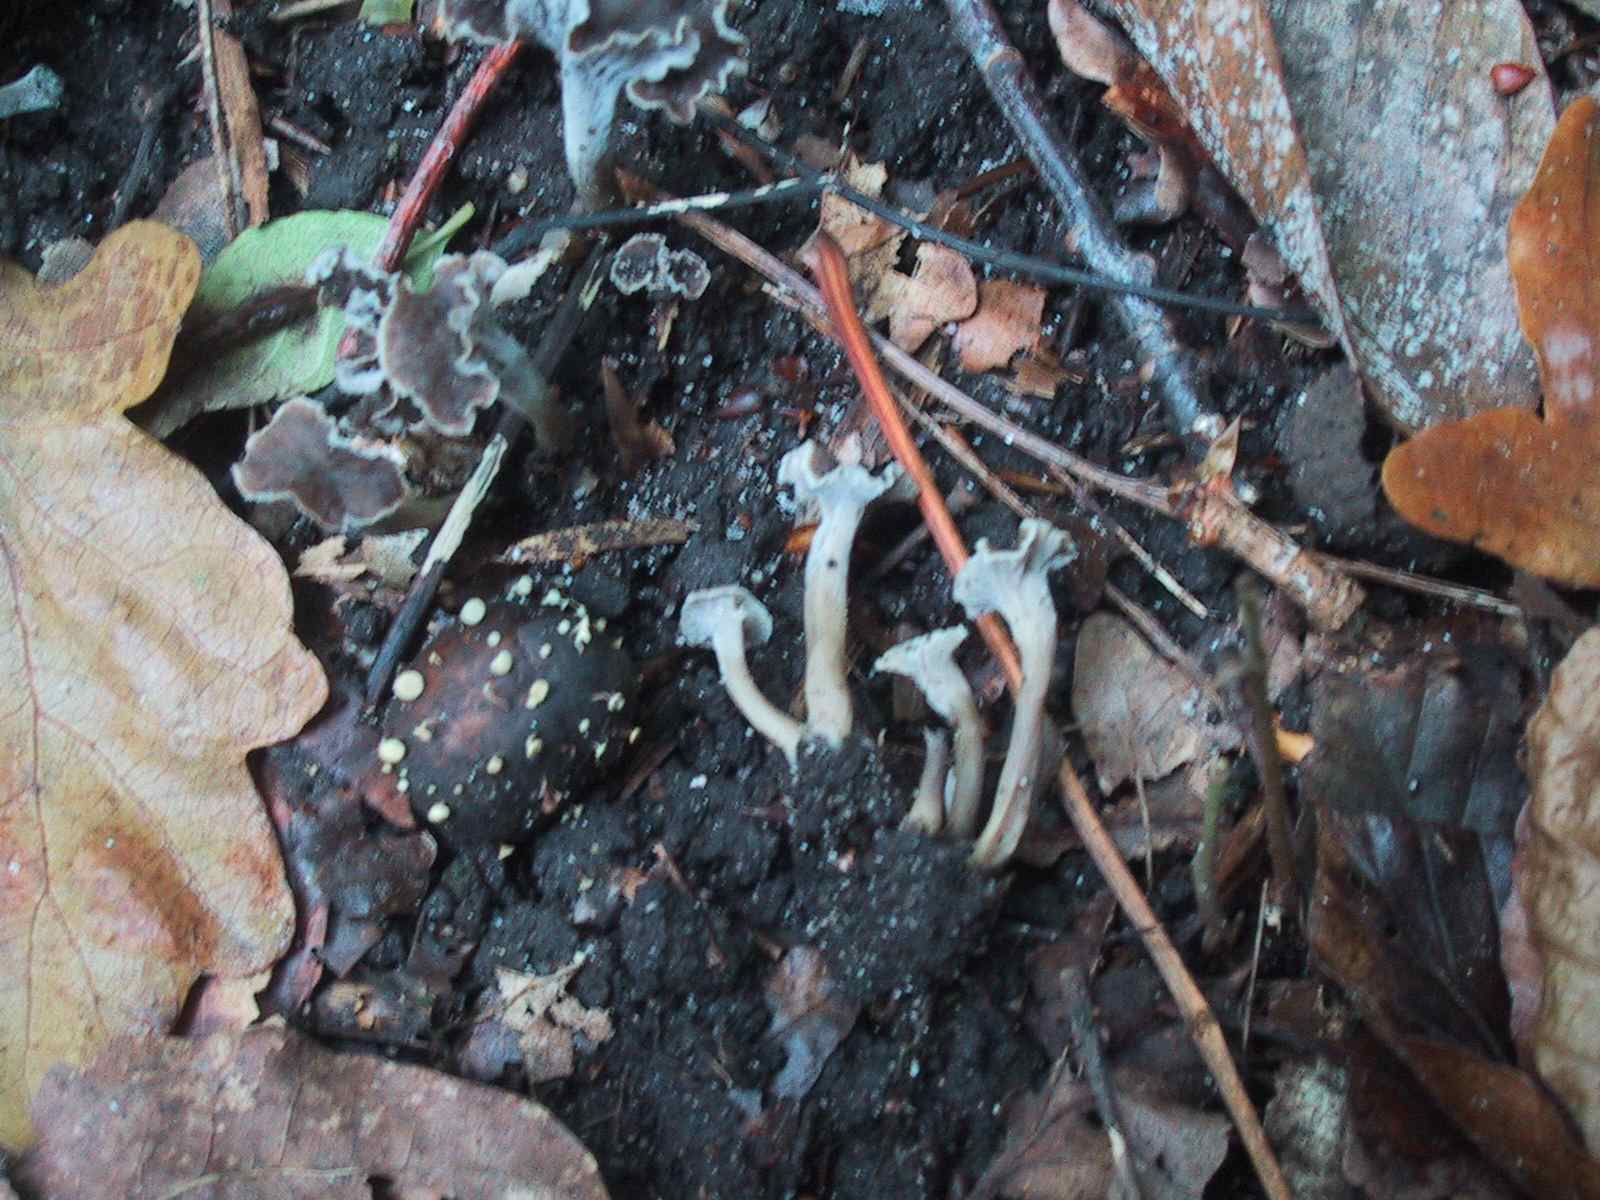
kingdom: Fungi
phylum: Ascomycota
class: Leotiomycetes
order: Helotiales
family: Helotiaceae
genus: Hymenoscyphus
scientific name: Hymenoscyphus fructigenus
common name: frugt-stilkskive
